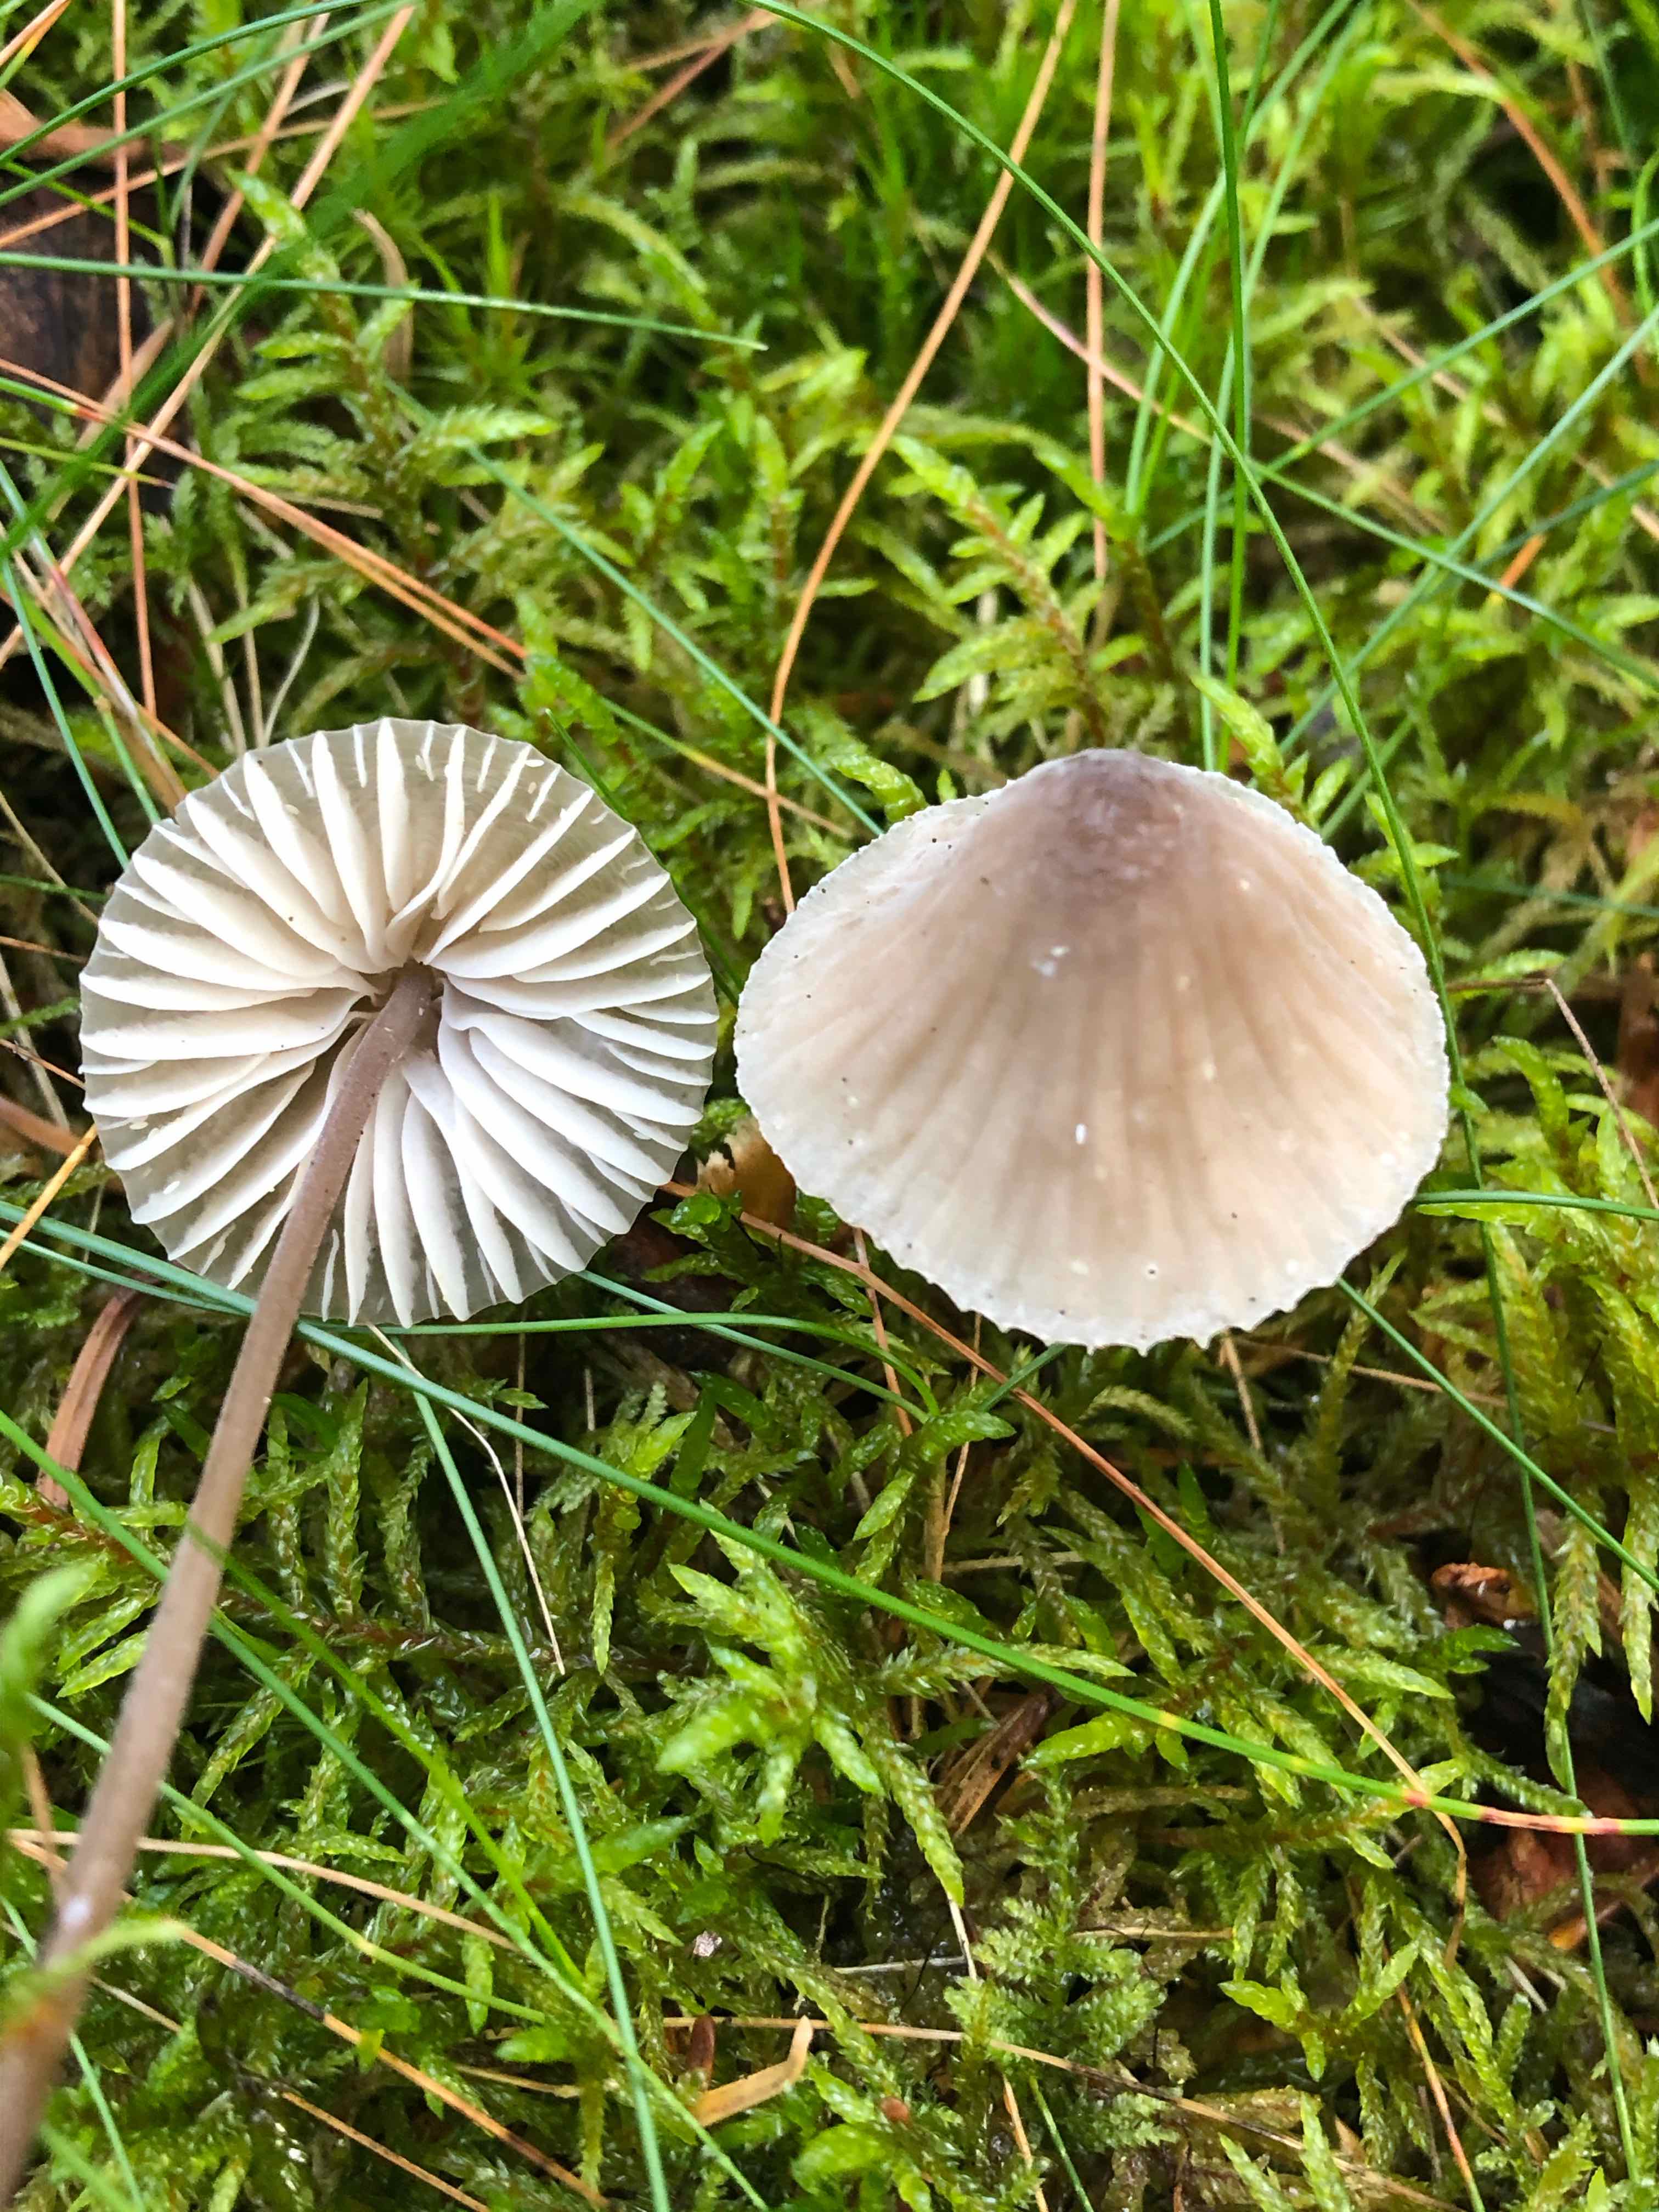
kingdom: Fungi
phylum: Basidiomycota
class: Agaricomycetes
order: Agaricales
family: Mycenaceae
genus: Mycena
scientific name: Mycena galopus
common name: hvidmælket huesvamp
